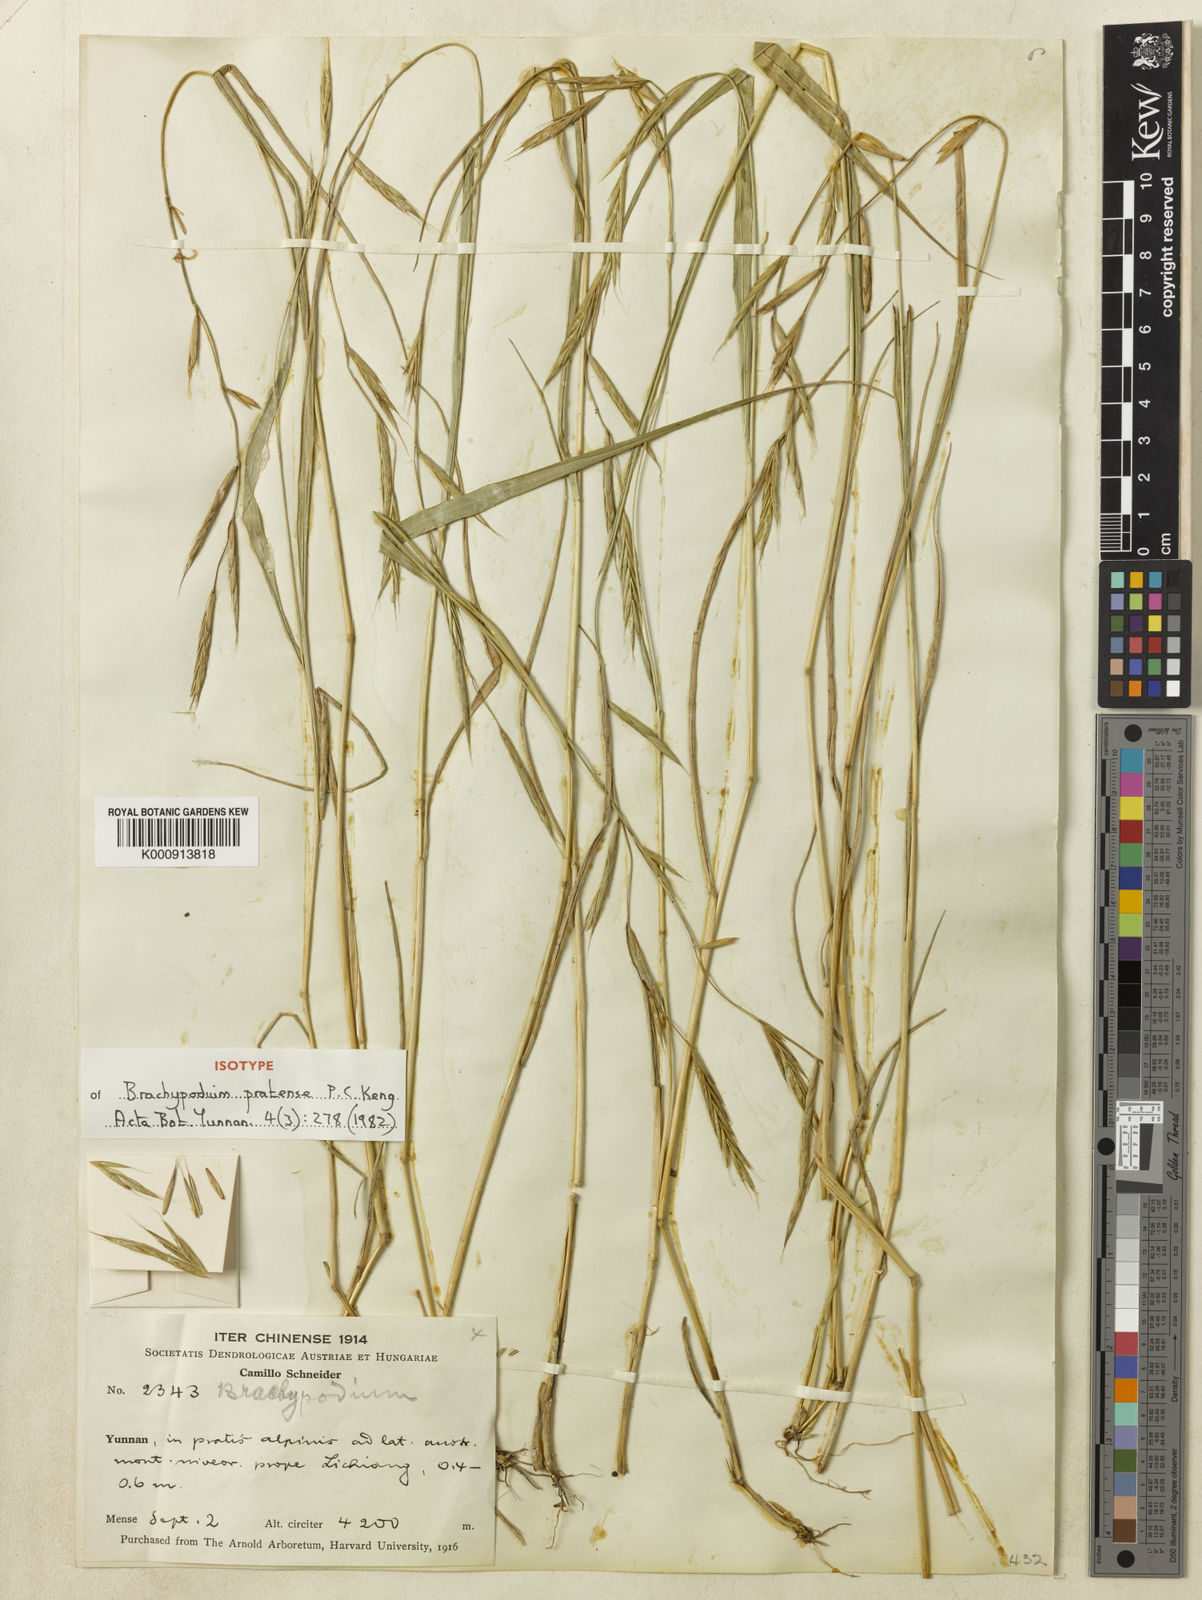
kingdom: Plantae
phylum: Tracheophyta
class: Liliopsida
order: Poales
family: Poaceae
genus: Brachypodium
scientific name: Brachypodium sylvaticum
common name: False-brome
